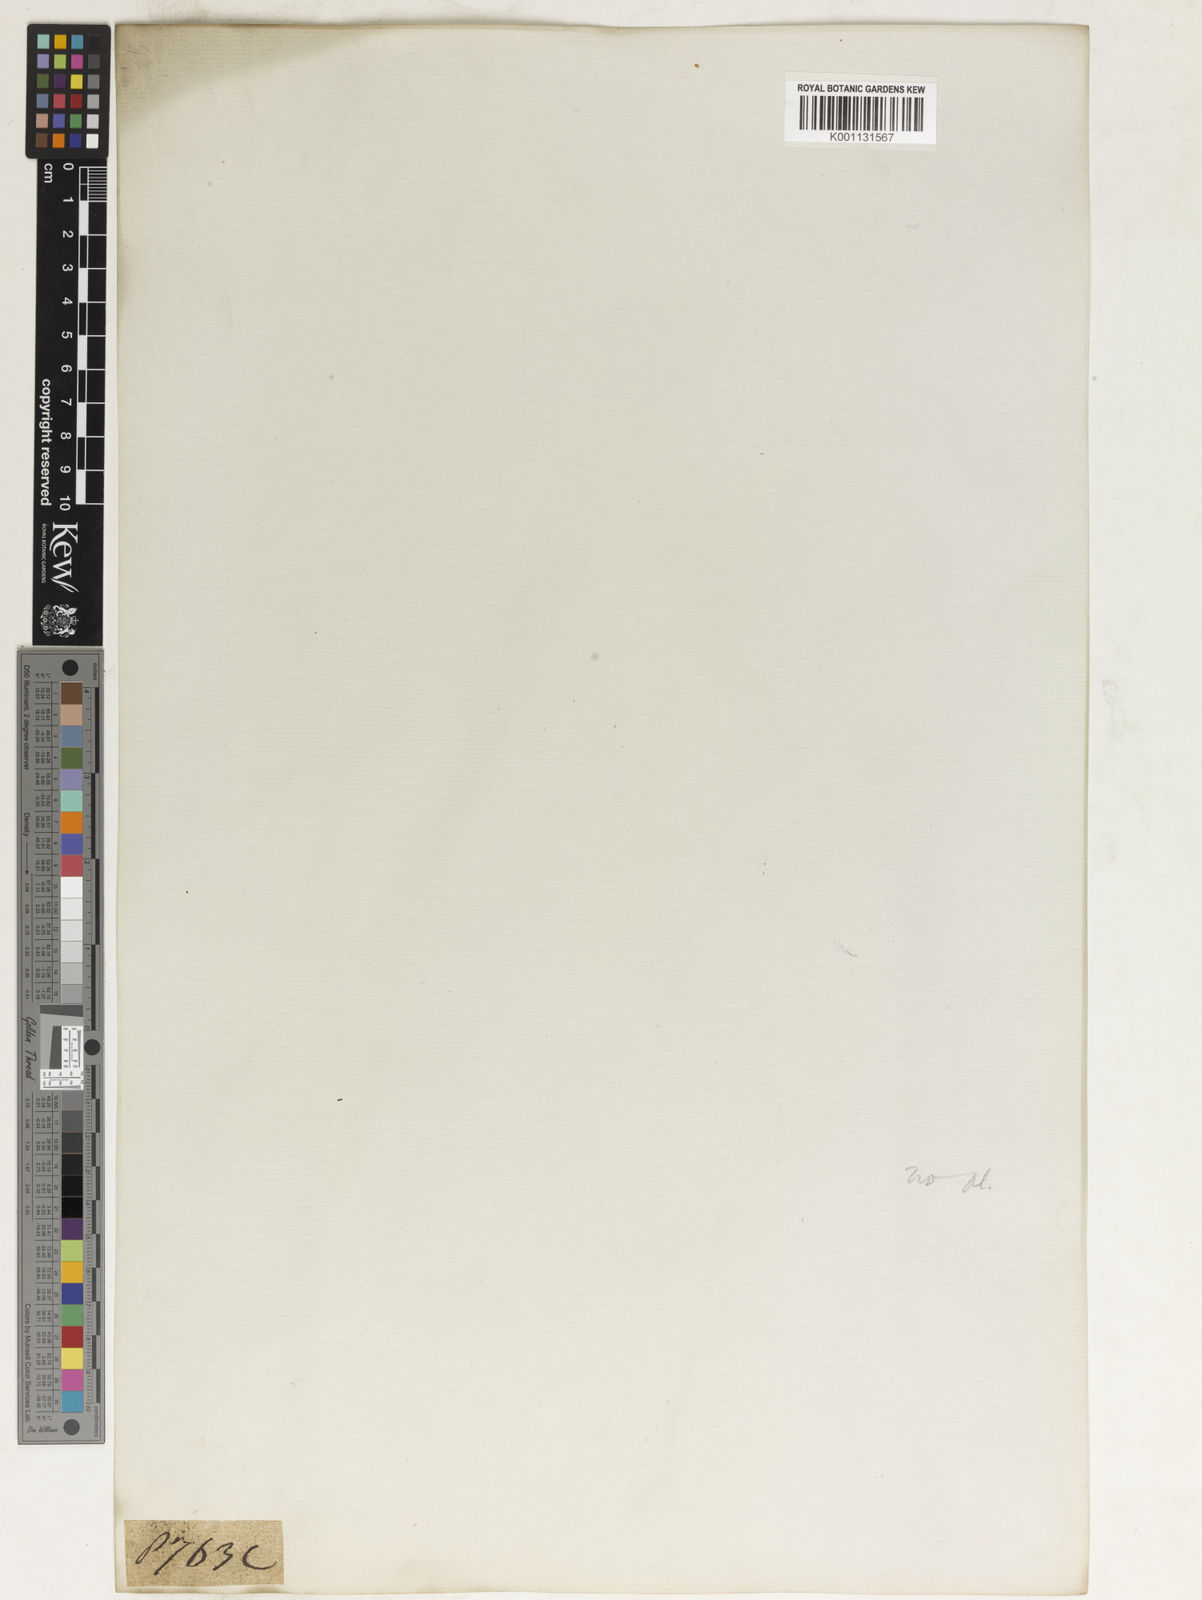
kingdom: Plantae
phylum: Tracheophyta
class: Liliopsida
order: Poales
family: Poaceae
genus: Themeda
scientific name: Themeda
